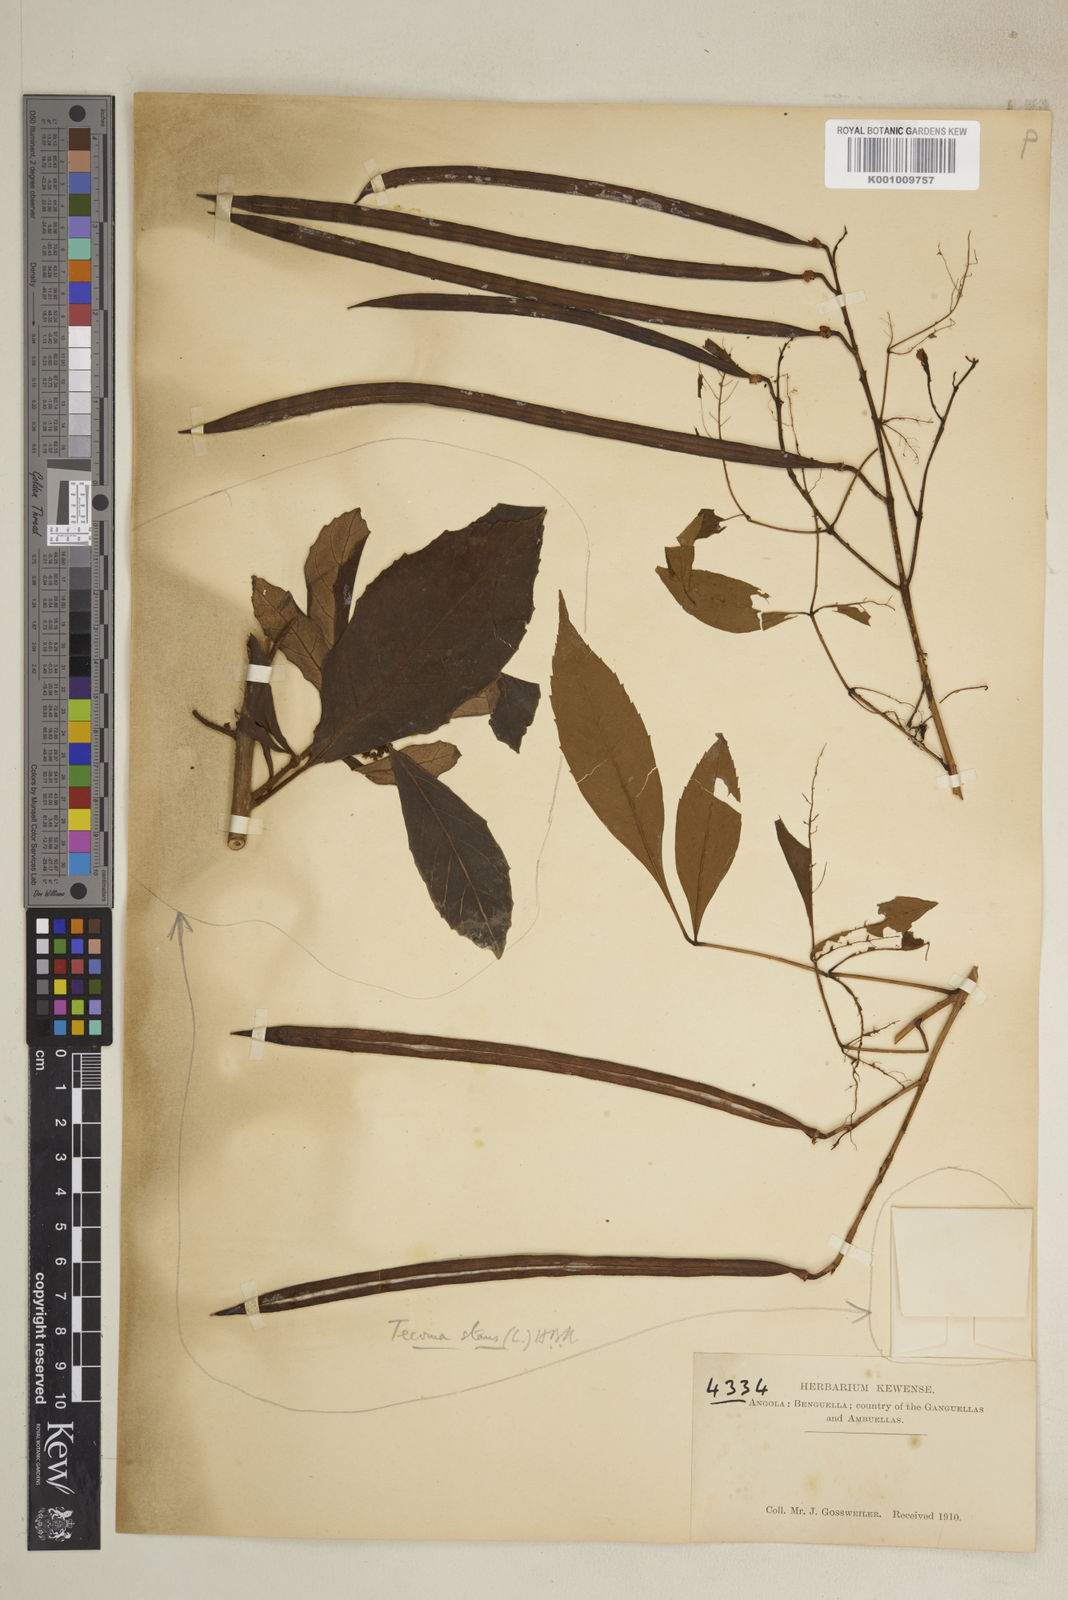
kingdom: Plantae
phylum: Tracheophyta
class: Magnoliopsida
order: Lamiales
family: Bignoniaceae
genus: Tecoma
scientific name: Tecoma stans
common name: Yellow trumpetbush
